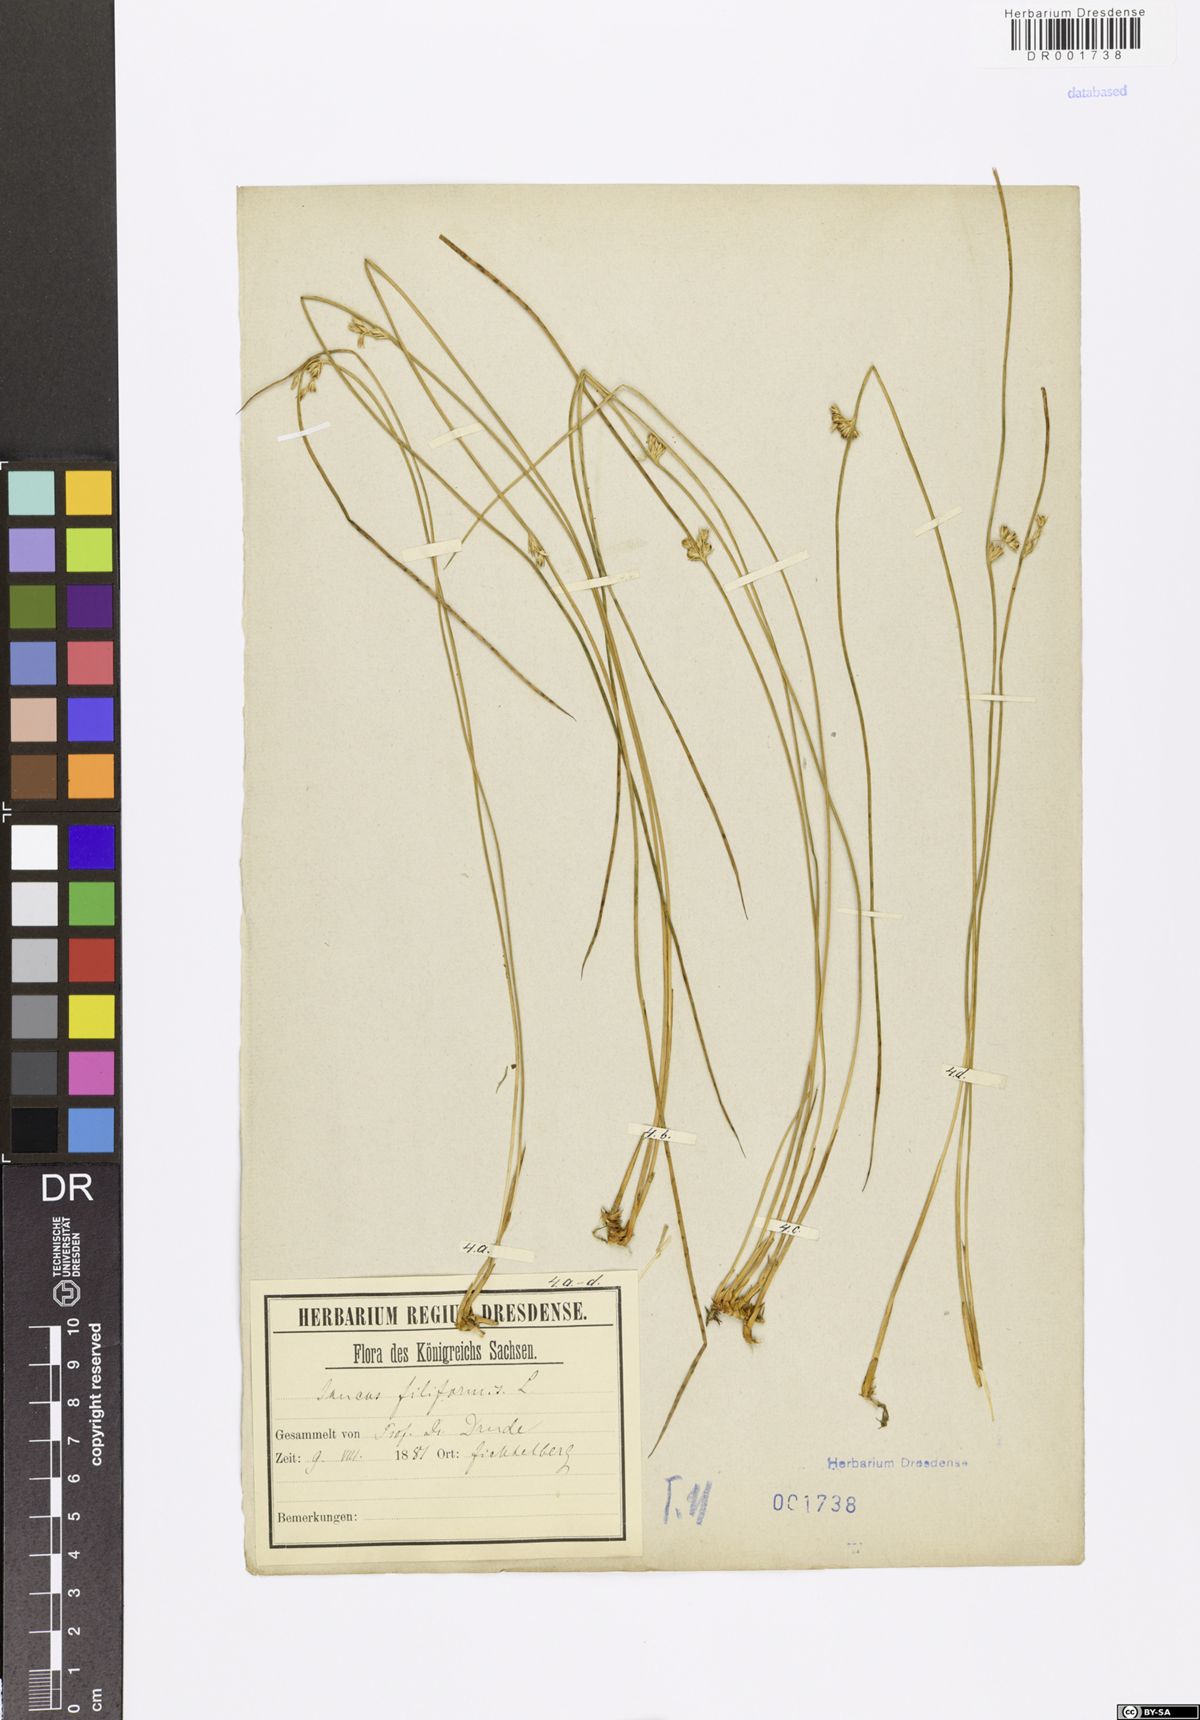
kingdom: Plantae
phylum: Tracheophyta
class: Liliopsida
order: Poales
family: Juncaceae
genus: Juncus
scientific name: Juncus inflexus
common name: Hard rush
